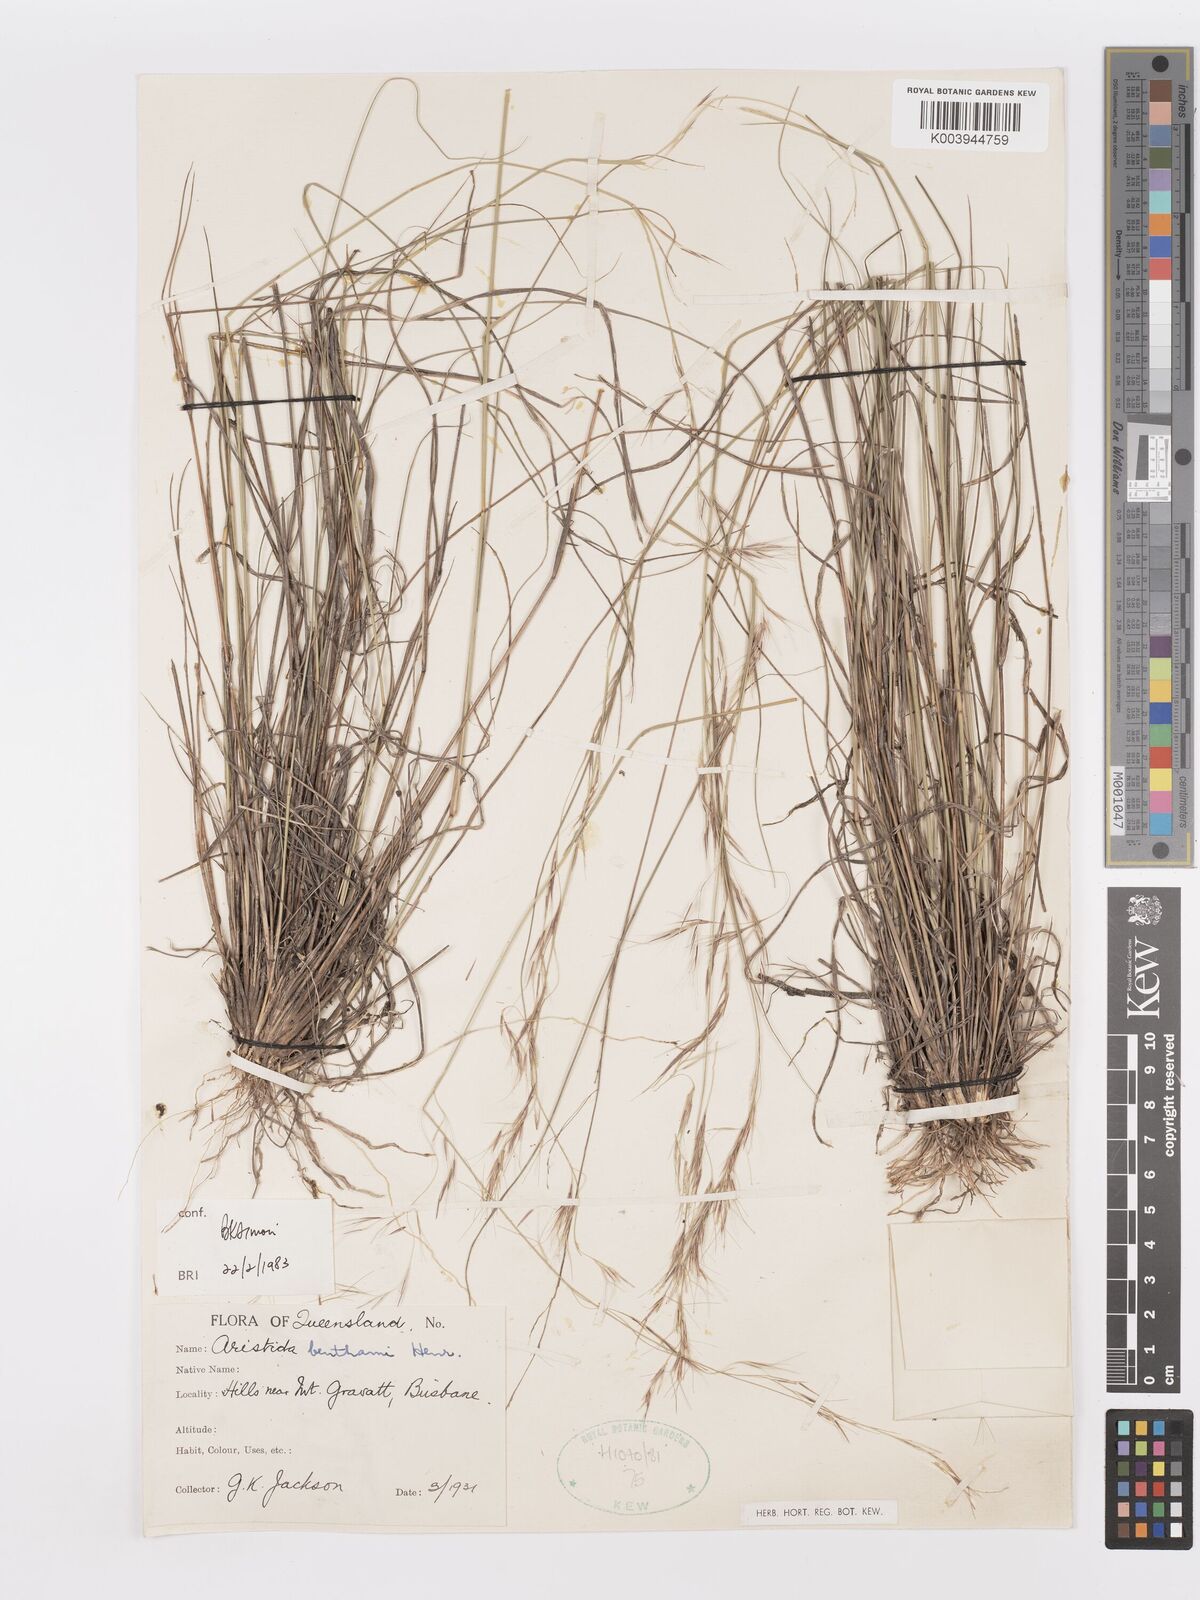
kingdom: Plantae
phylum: Tracheophyta
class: Liliopsida
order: Poales
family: Poaceae
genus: Aristida
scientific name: Aristida benthamii
